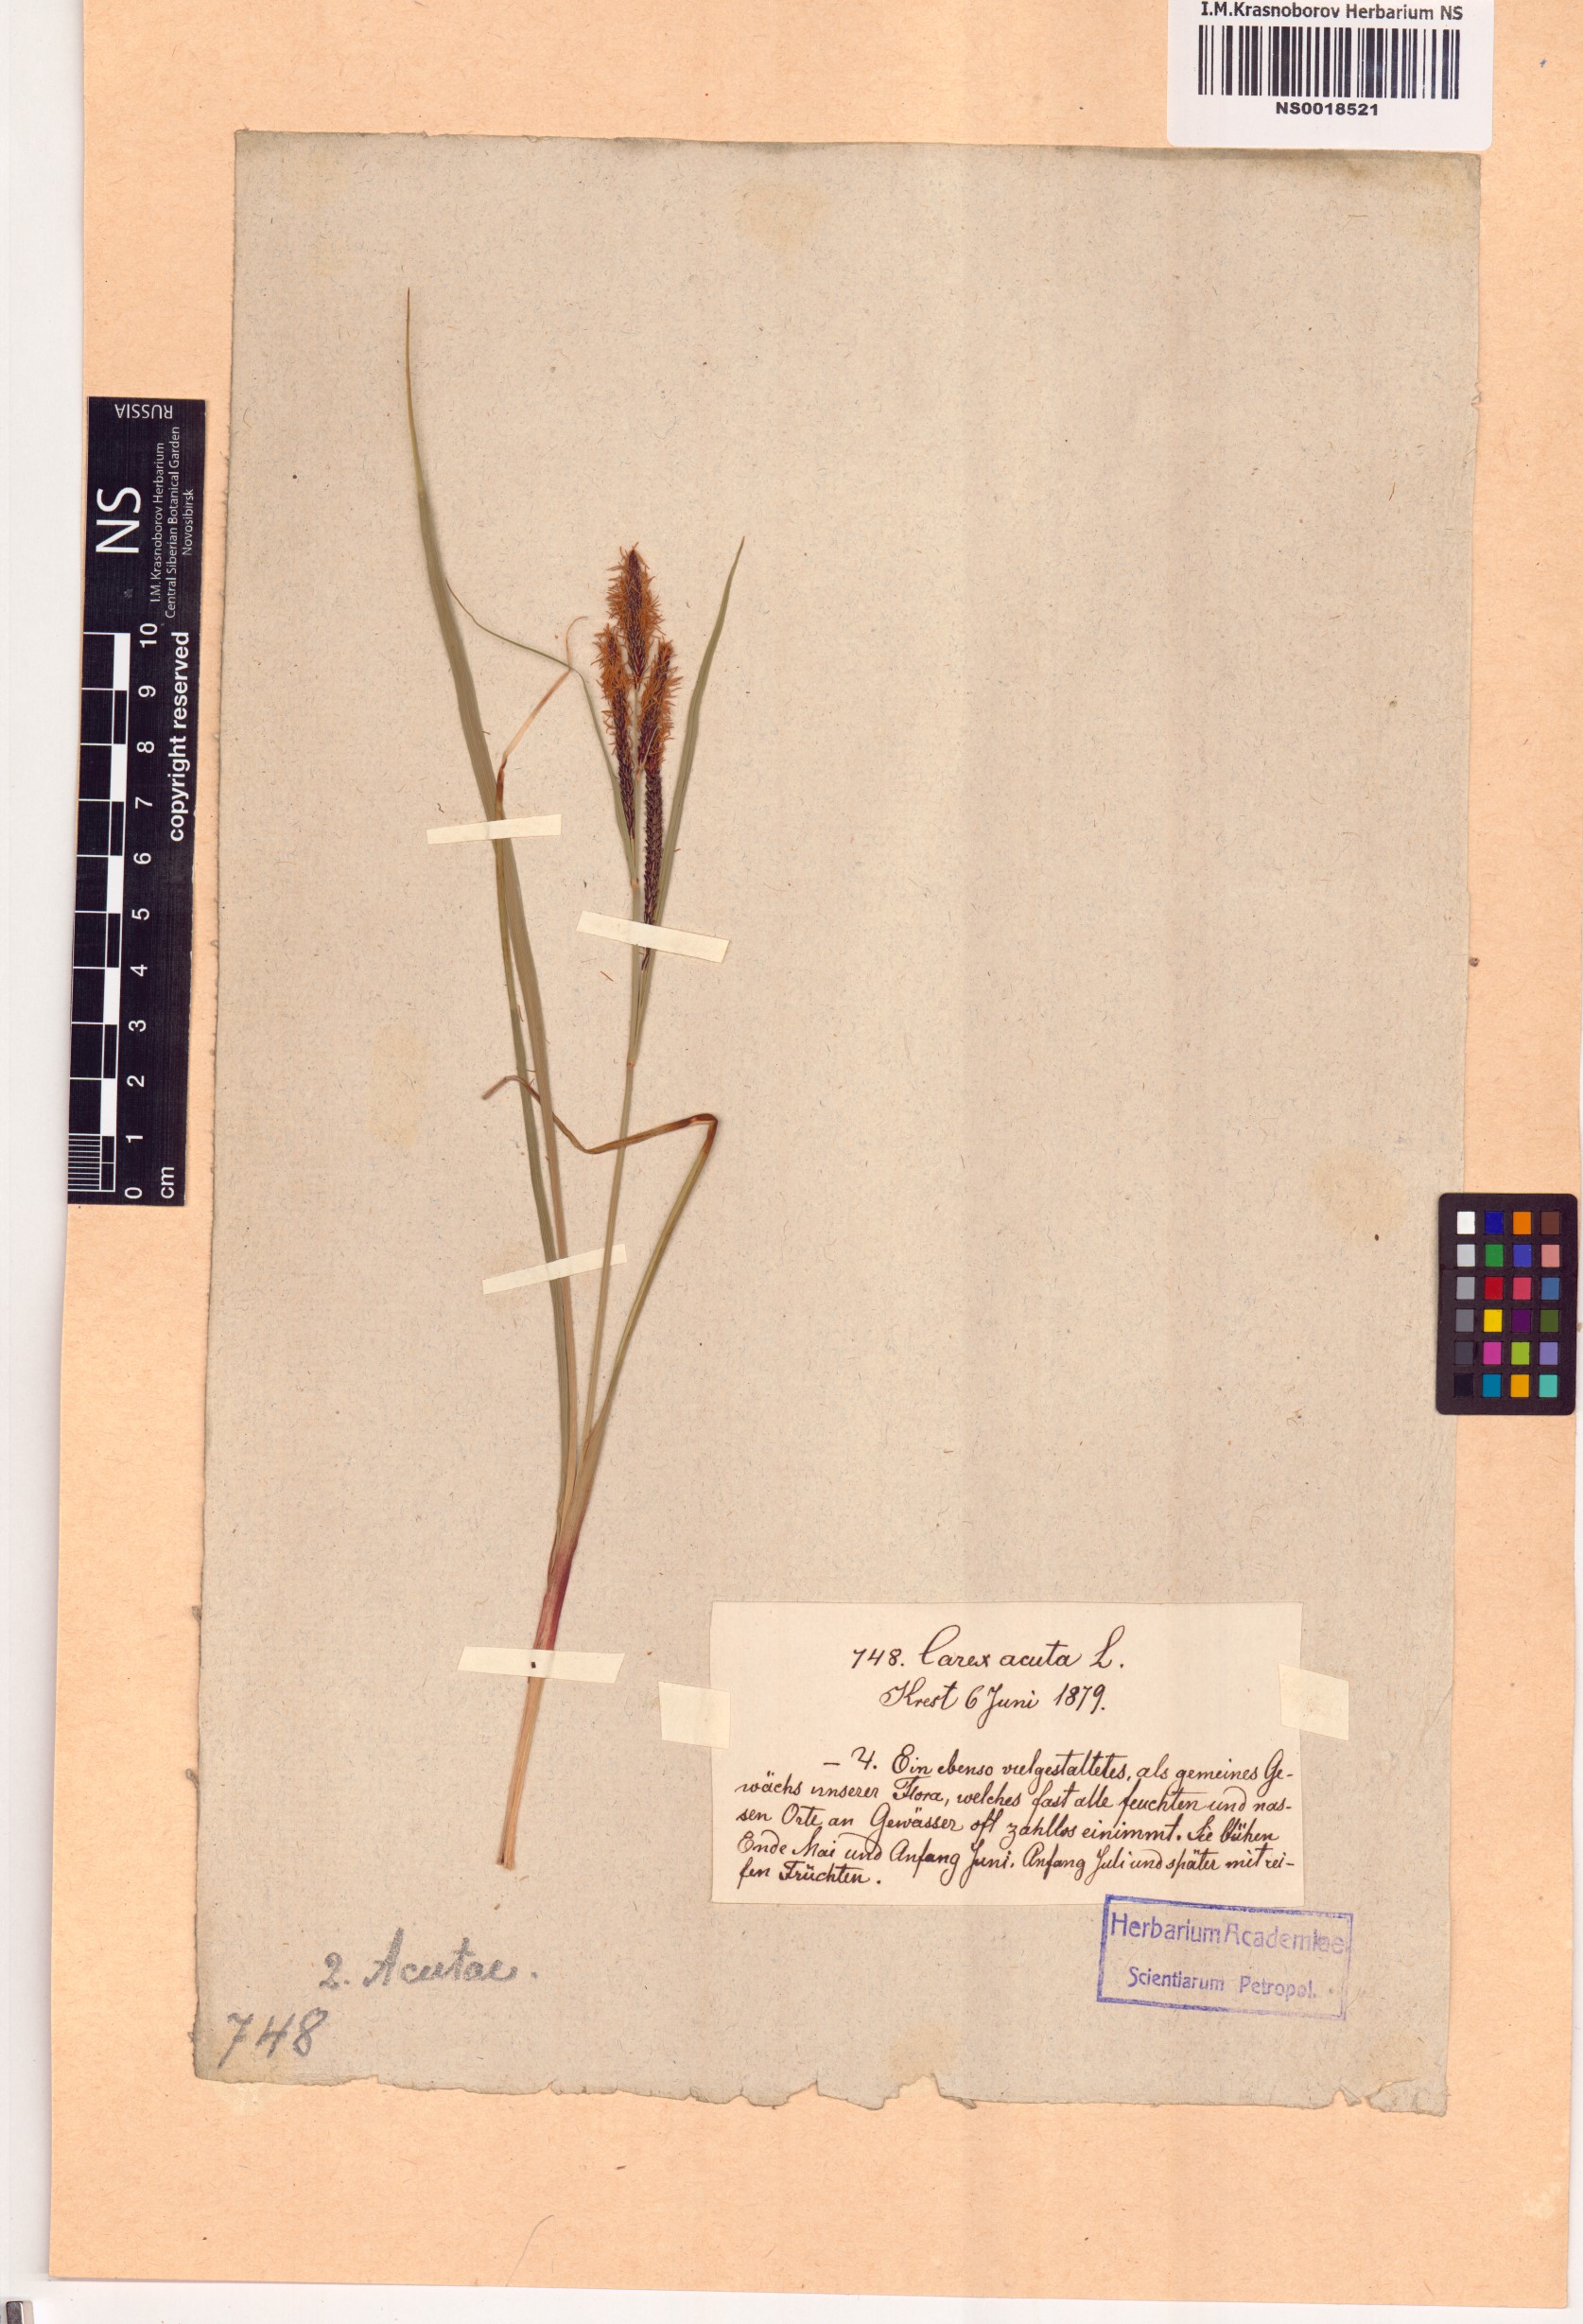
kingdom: Plantae
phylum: Tracheophyta
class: Liliopsida
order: Poales
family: Cyperaceae
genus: Carex
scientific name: Carex acuta
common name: Slender tufted-sedge
